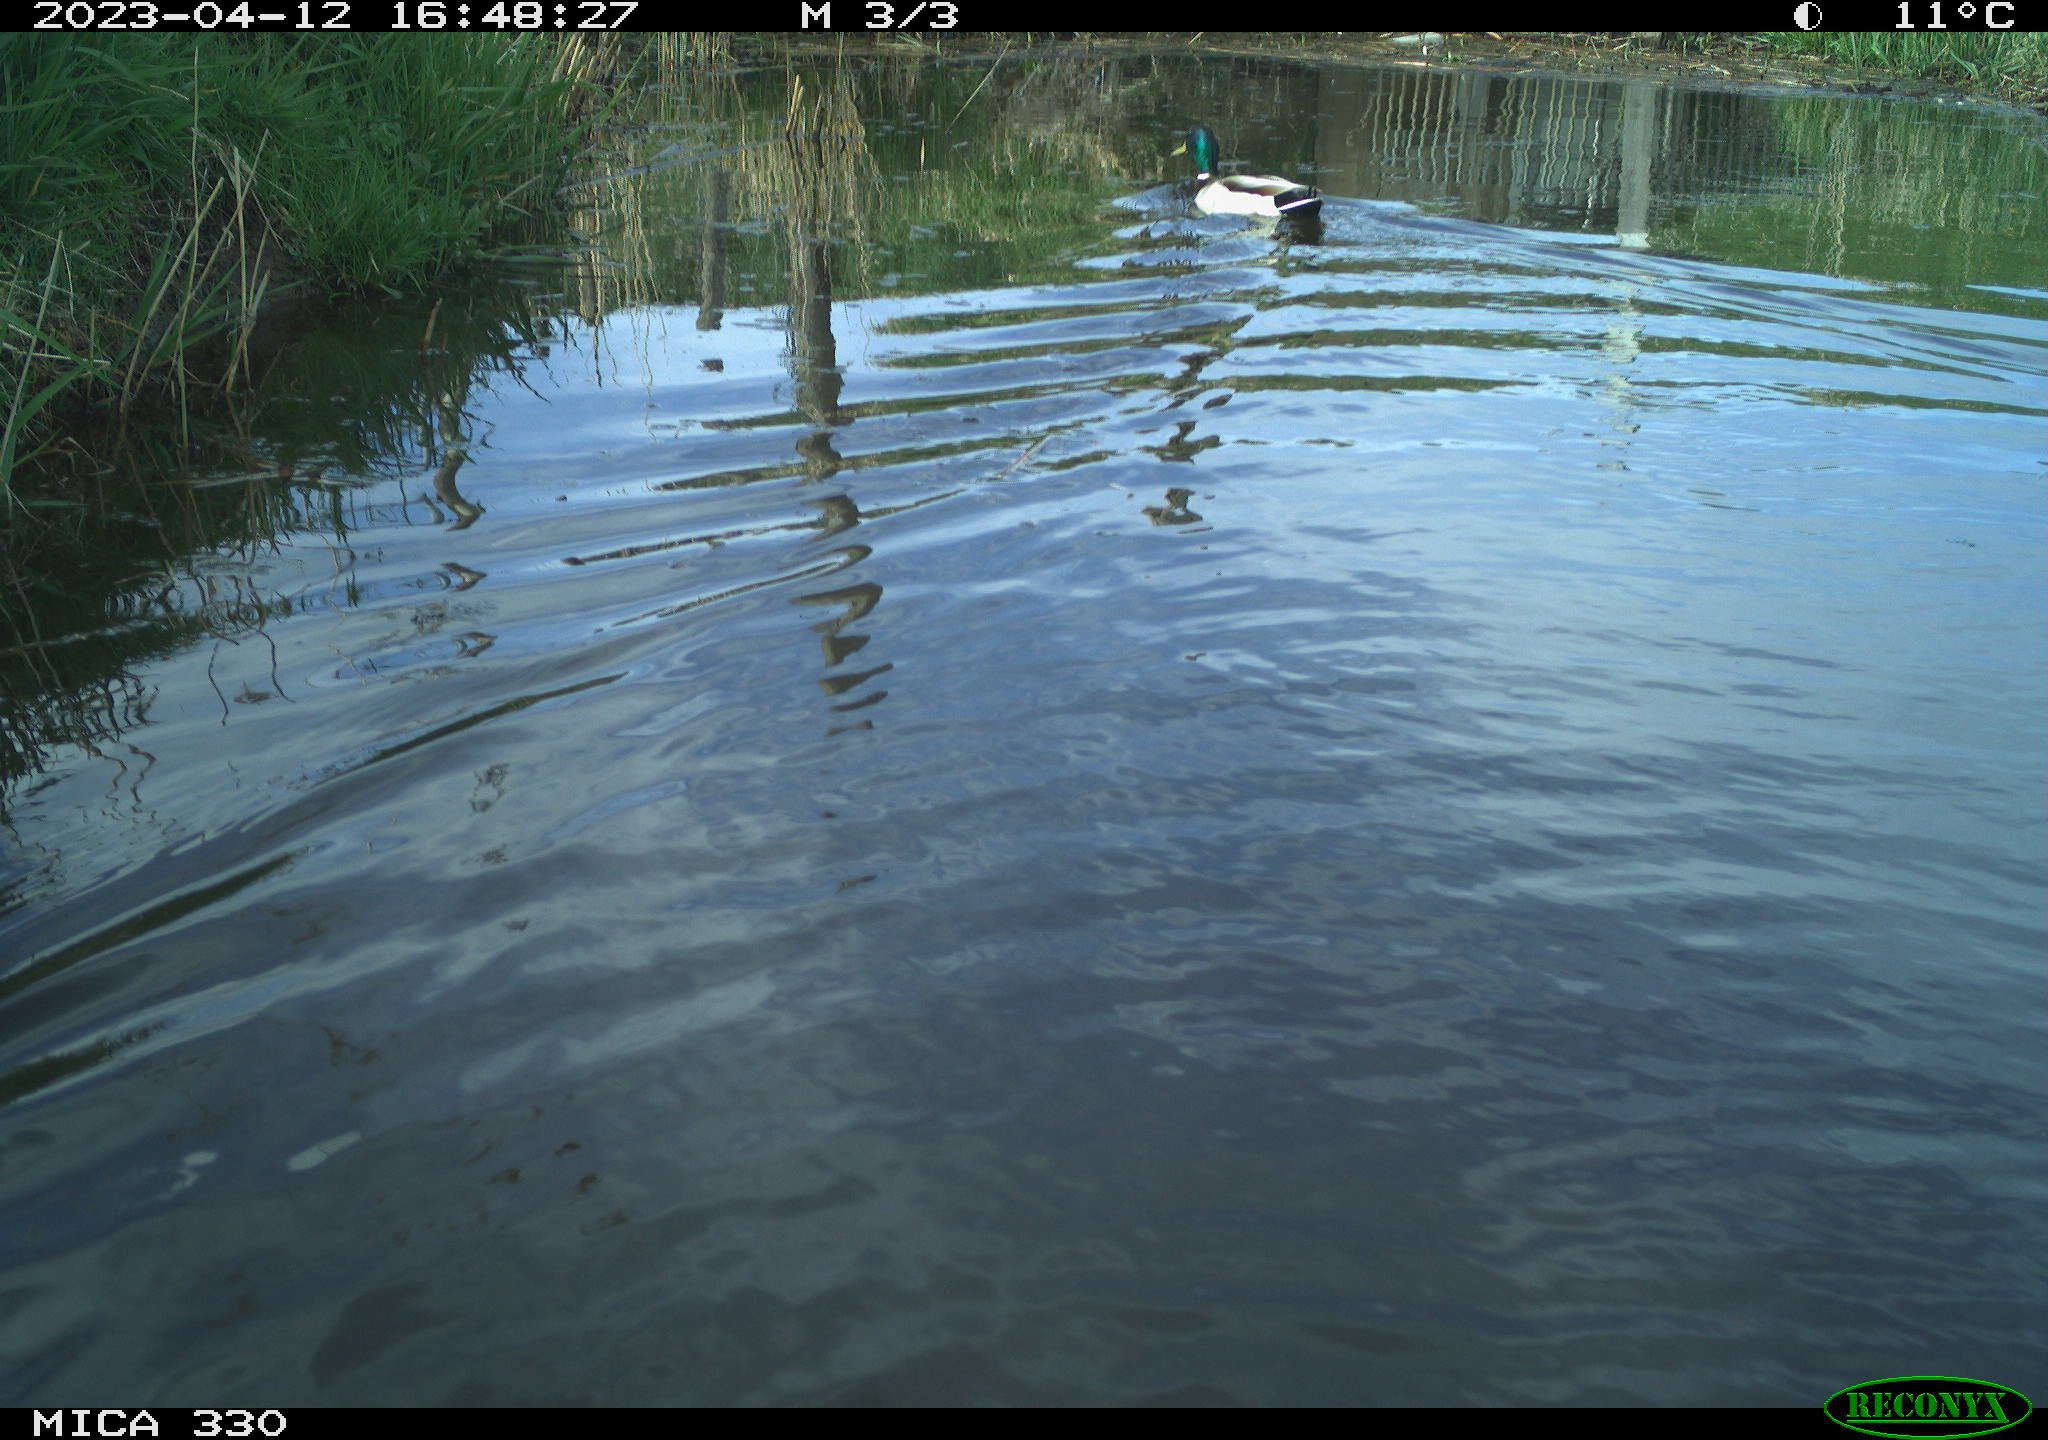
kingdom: Animalia
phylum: Chordata
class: Aves
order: Anseriformes
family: Anatidae
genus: Anas
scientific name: Anas
